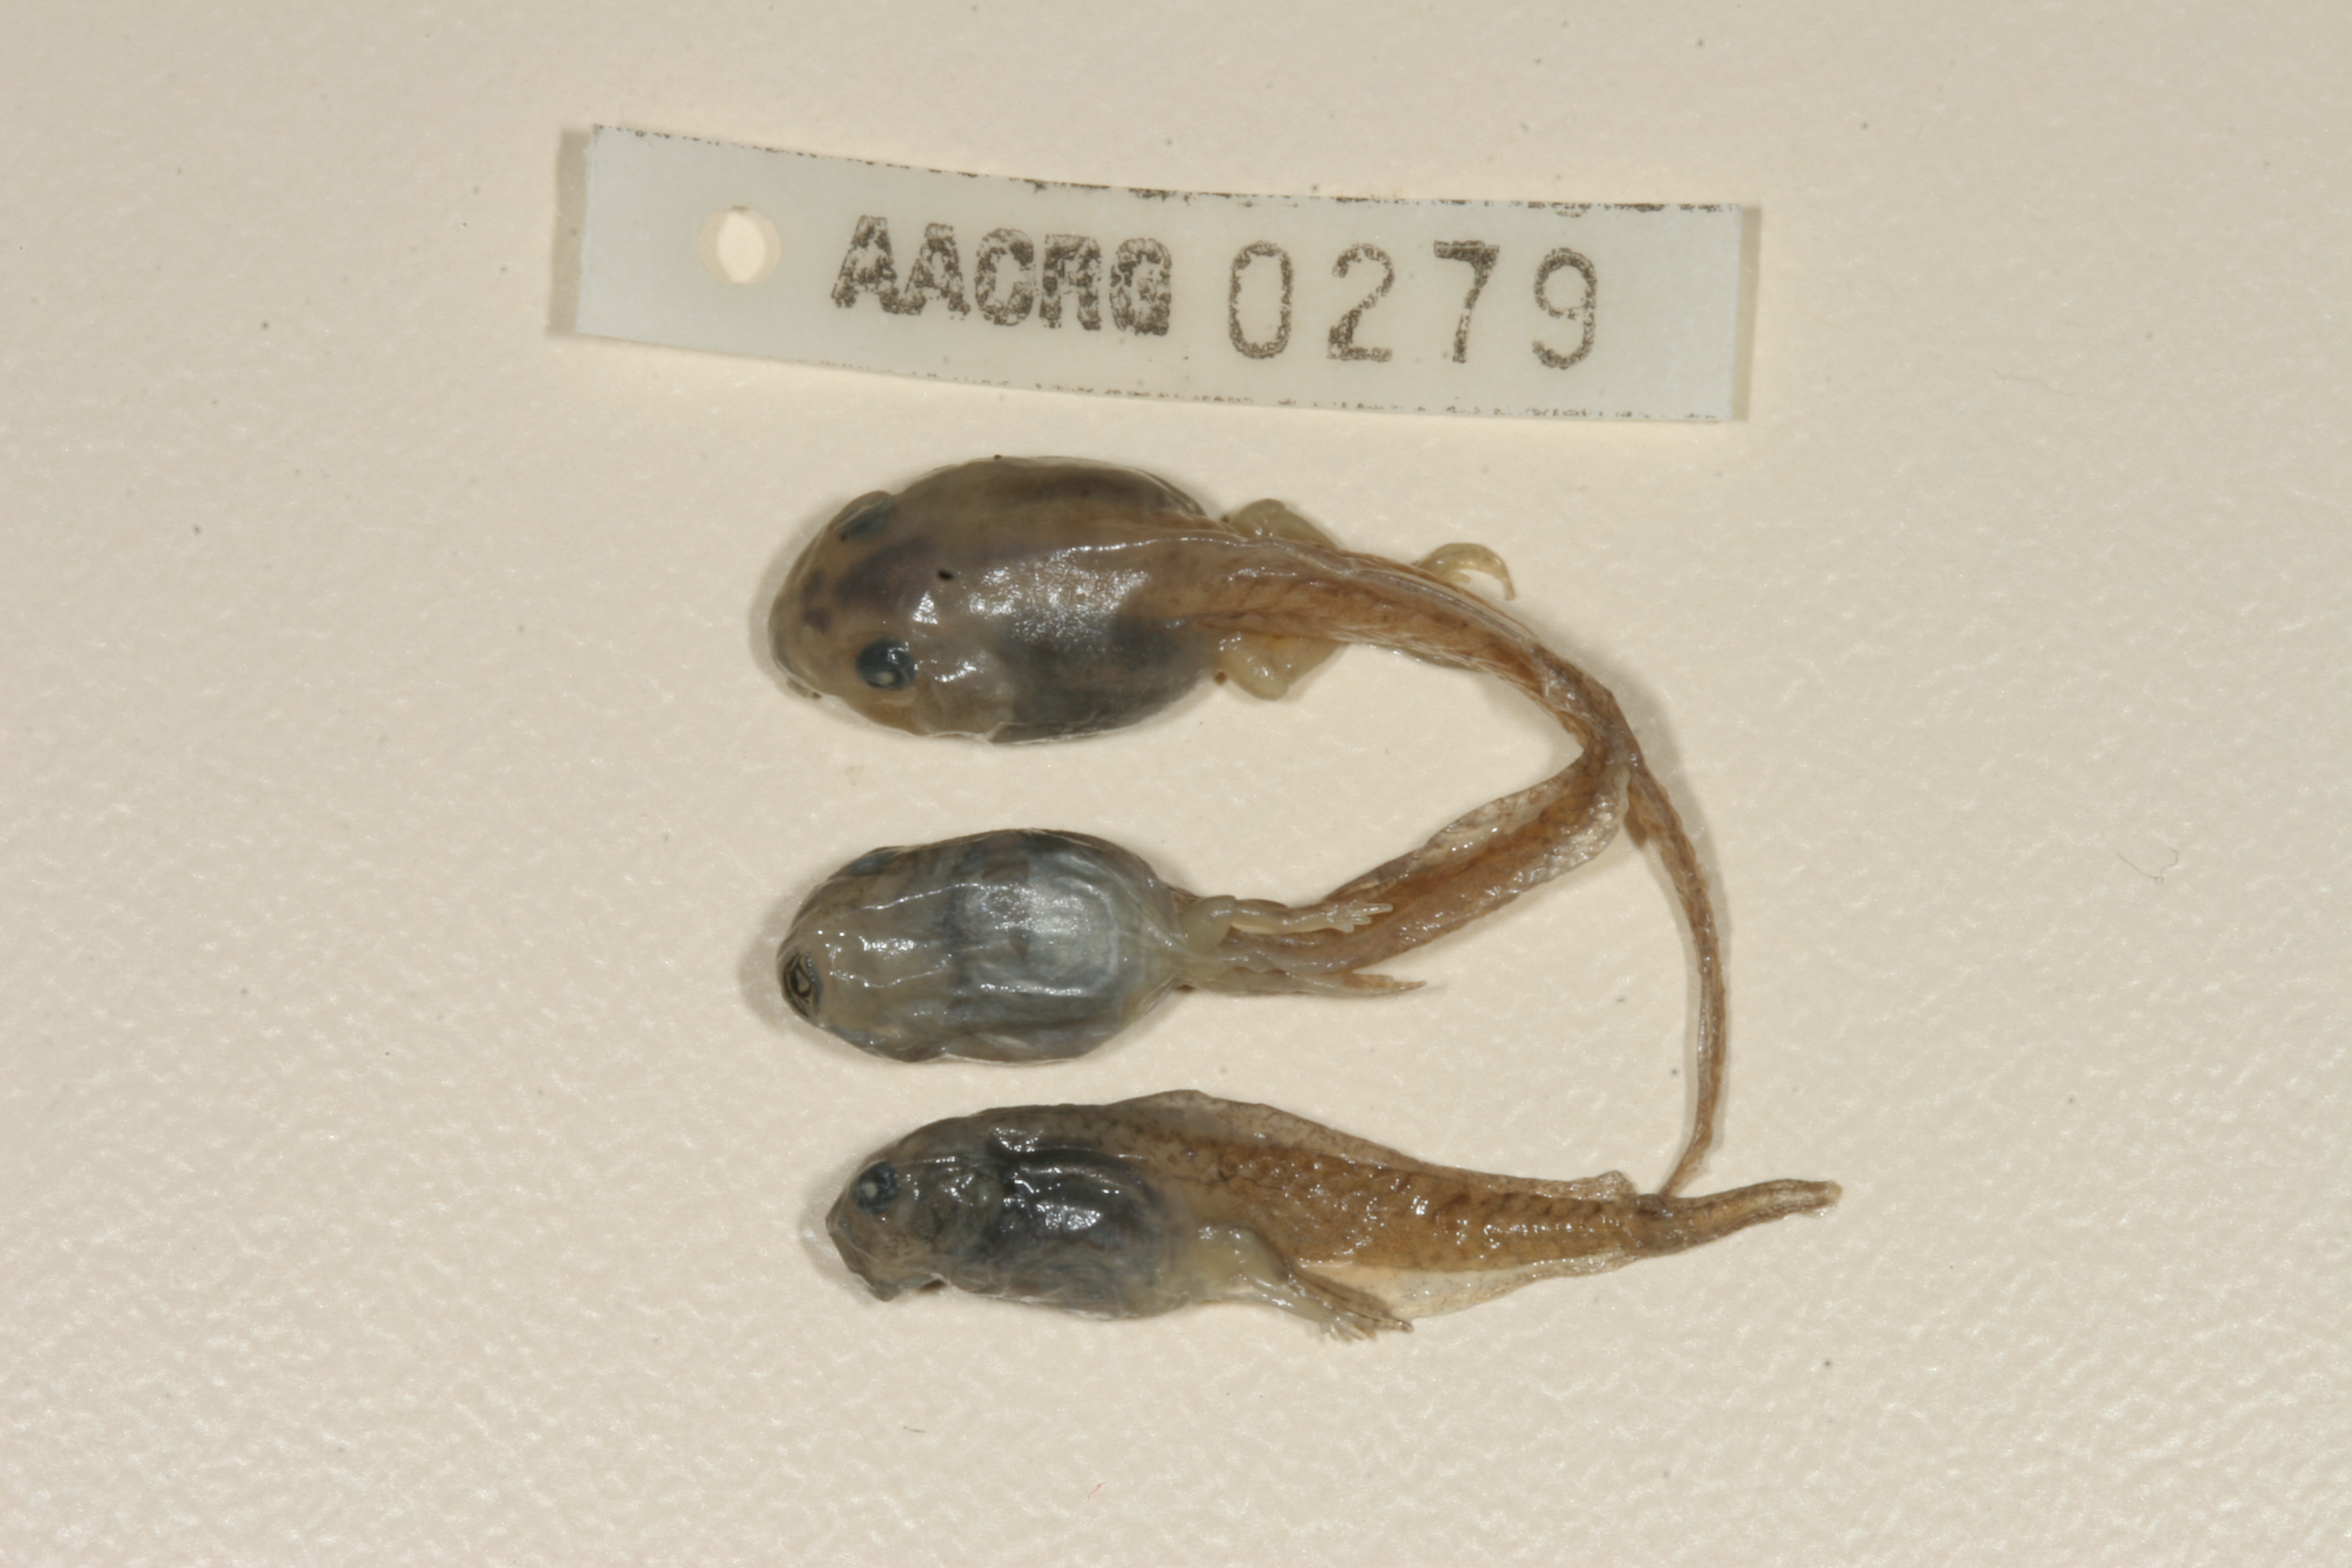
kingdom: Animalia
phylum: Chordata
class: Amphibia
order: Anura
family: Pyxicephalidae
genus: Cacosternum
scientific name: Cacosternum boettgeri
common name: Boettger's frog
